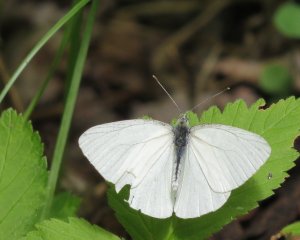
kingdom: Animalia
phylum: Arthropoda
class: Insecta
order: Lepidoptera
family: Pieridae
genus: Pieris
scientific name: Pieris oleracea
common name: Mustard White
